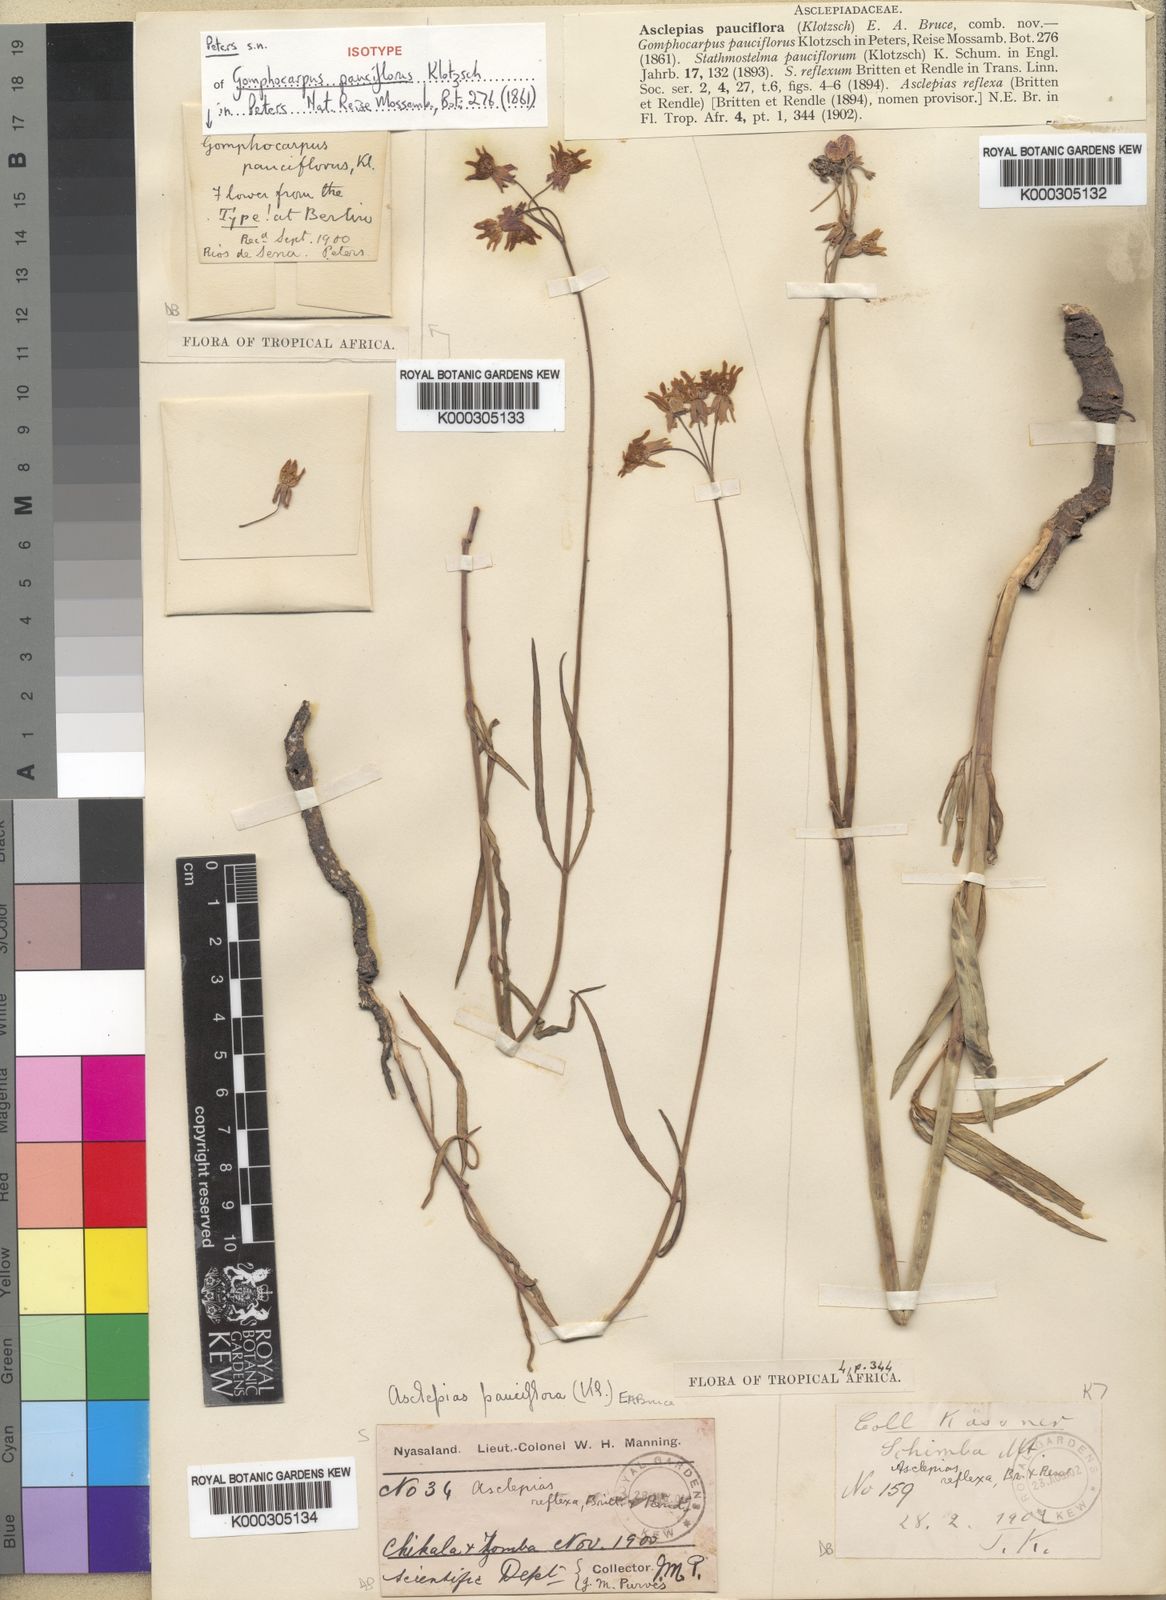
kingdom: Plantae
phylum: Tracheophyta
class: Magnoliopsida
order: Gentianales
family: Apocynaceae
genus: Stathmostelma
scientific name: Stathmostelma pauciflorum
